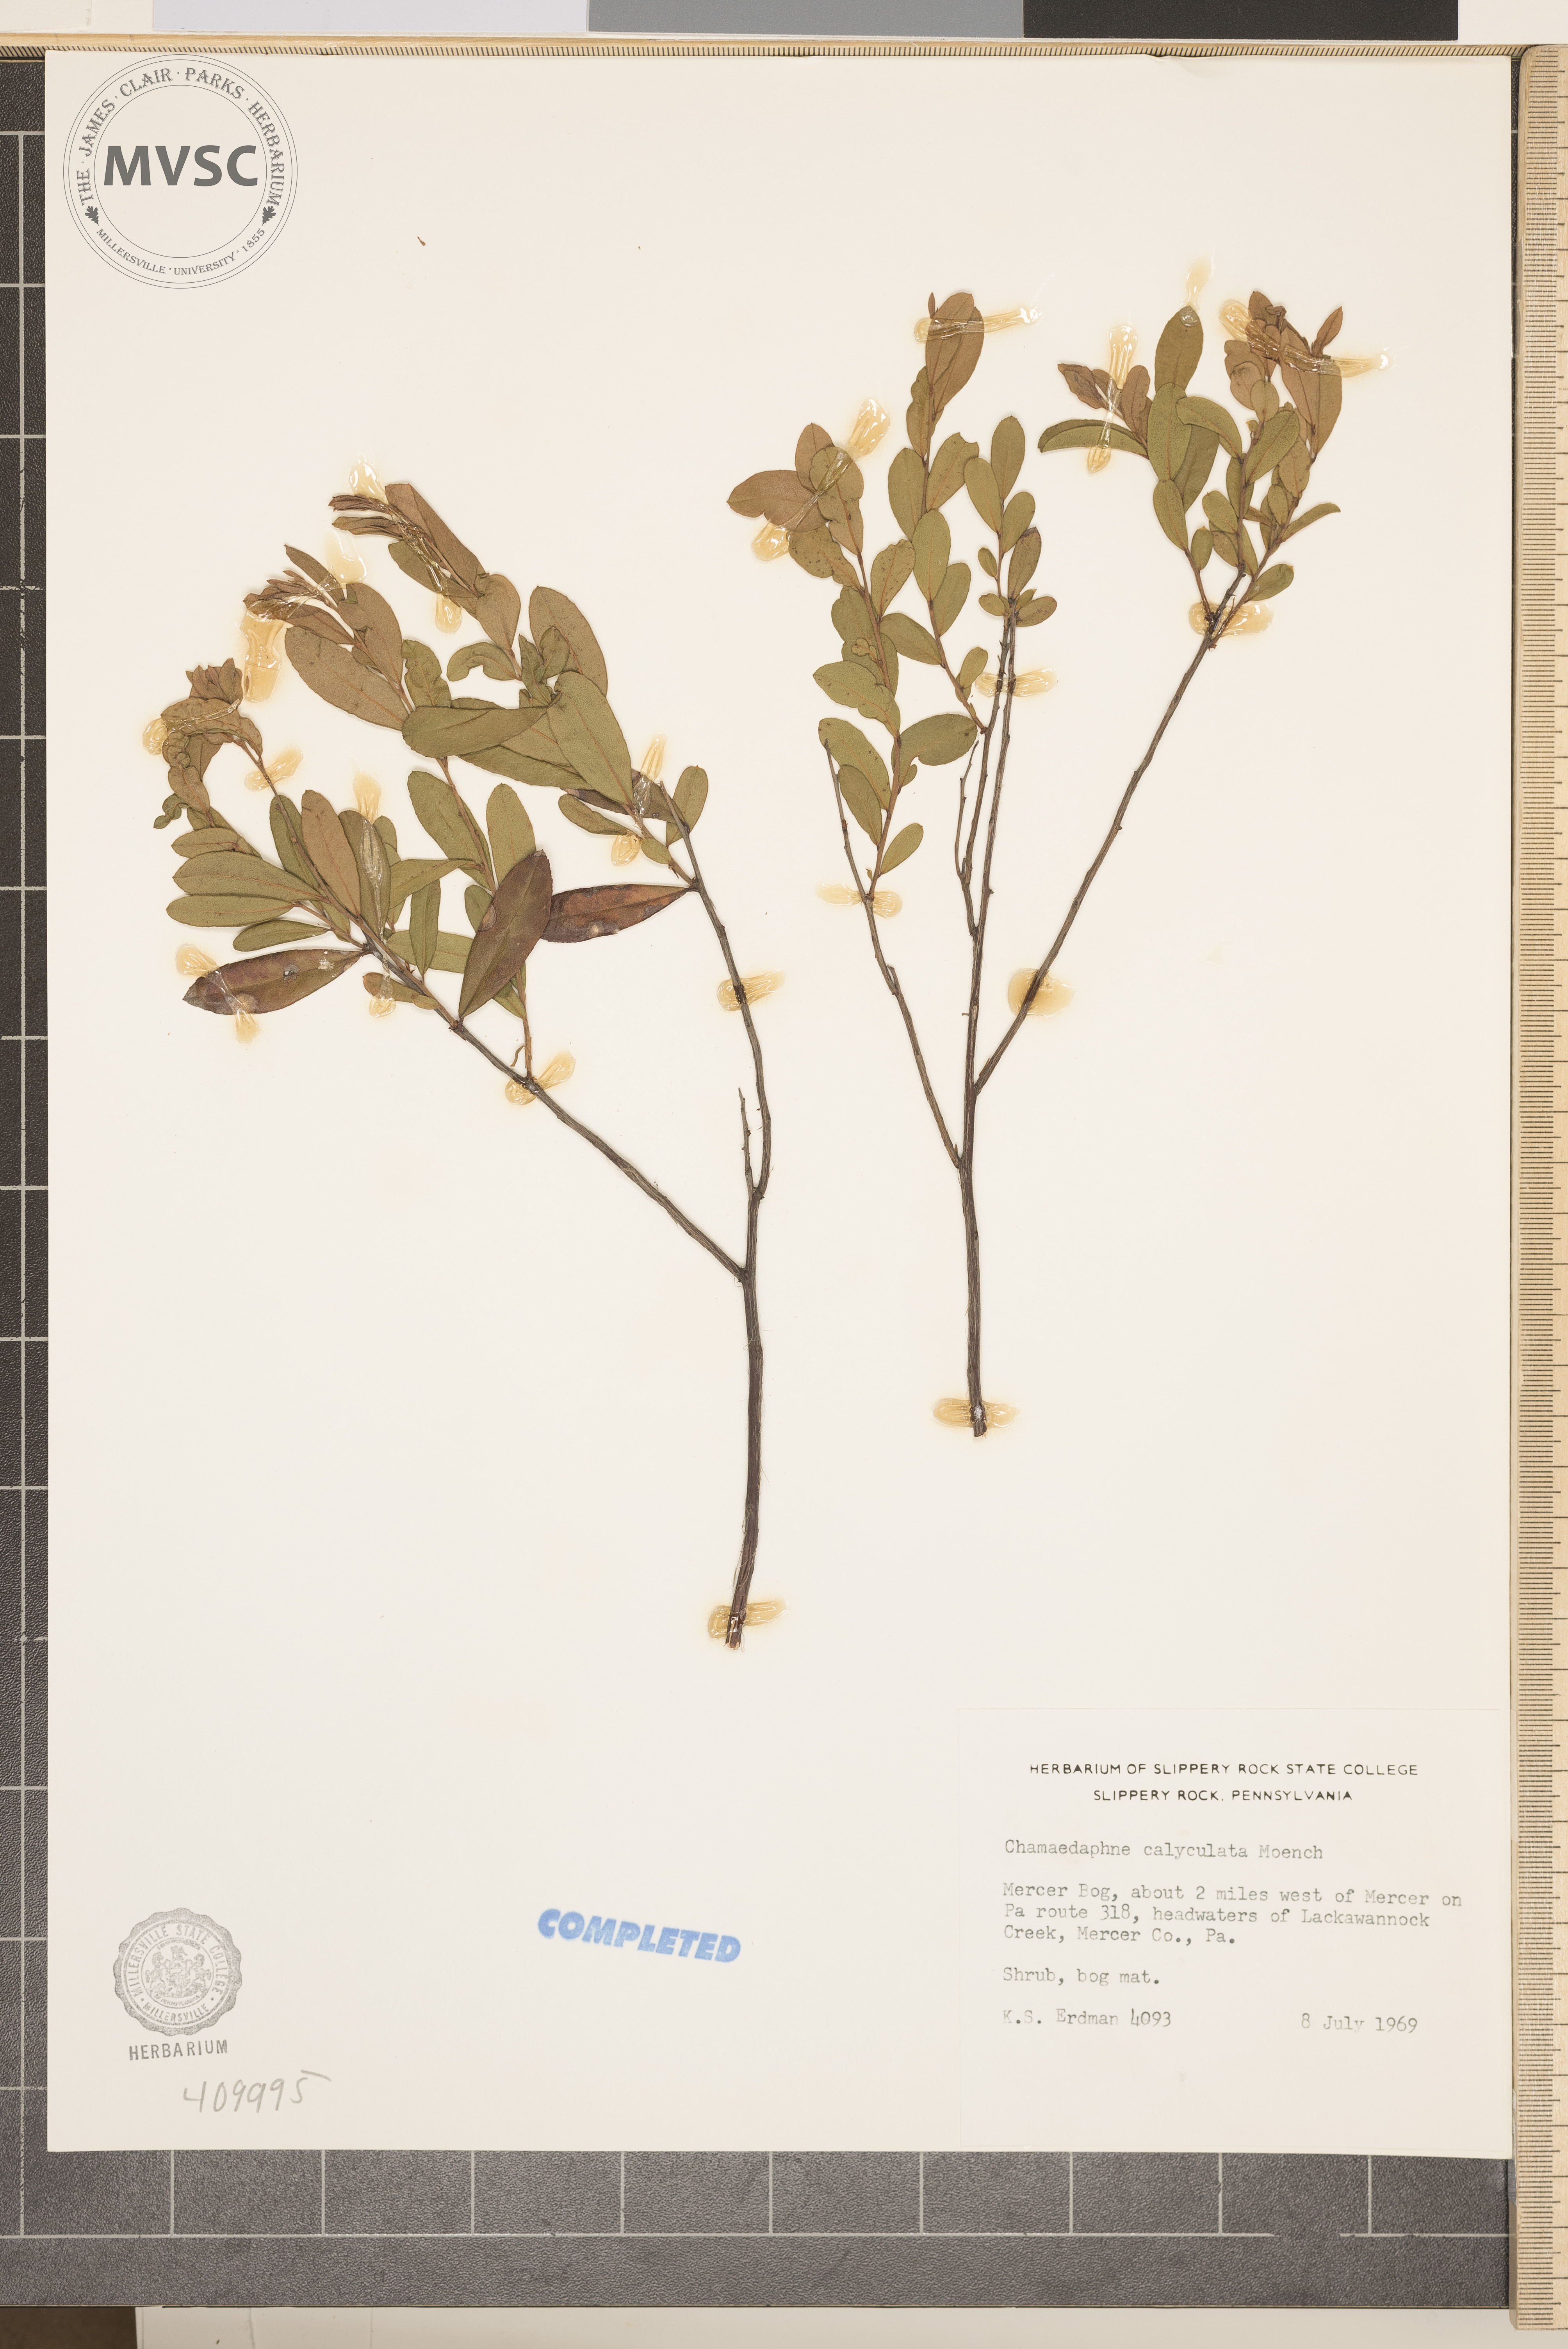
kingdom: Plantae
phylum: Tracheophyta
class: Magnoliopsida
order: Ericales
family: Ericaceae
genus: Chamaedaphne
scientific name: Chamaedaphne calyculata
